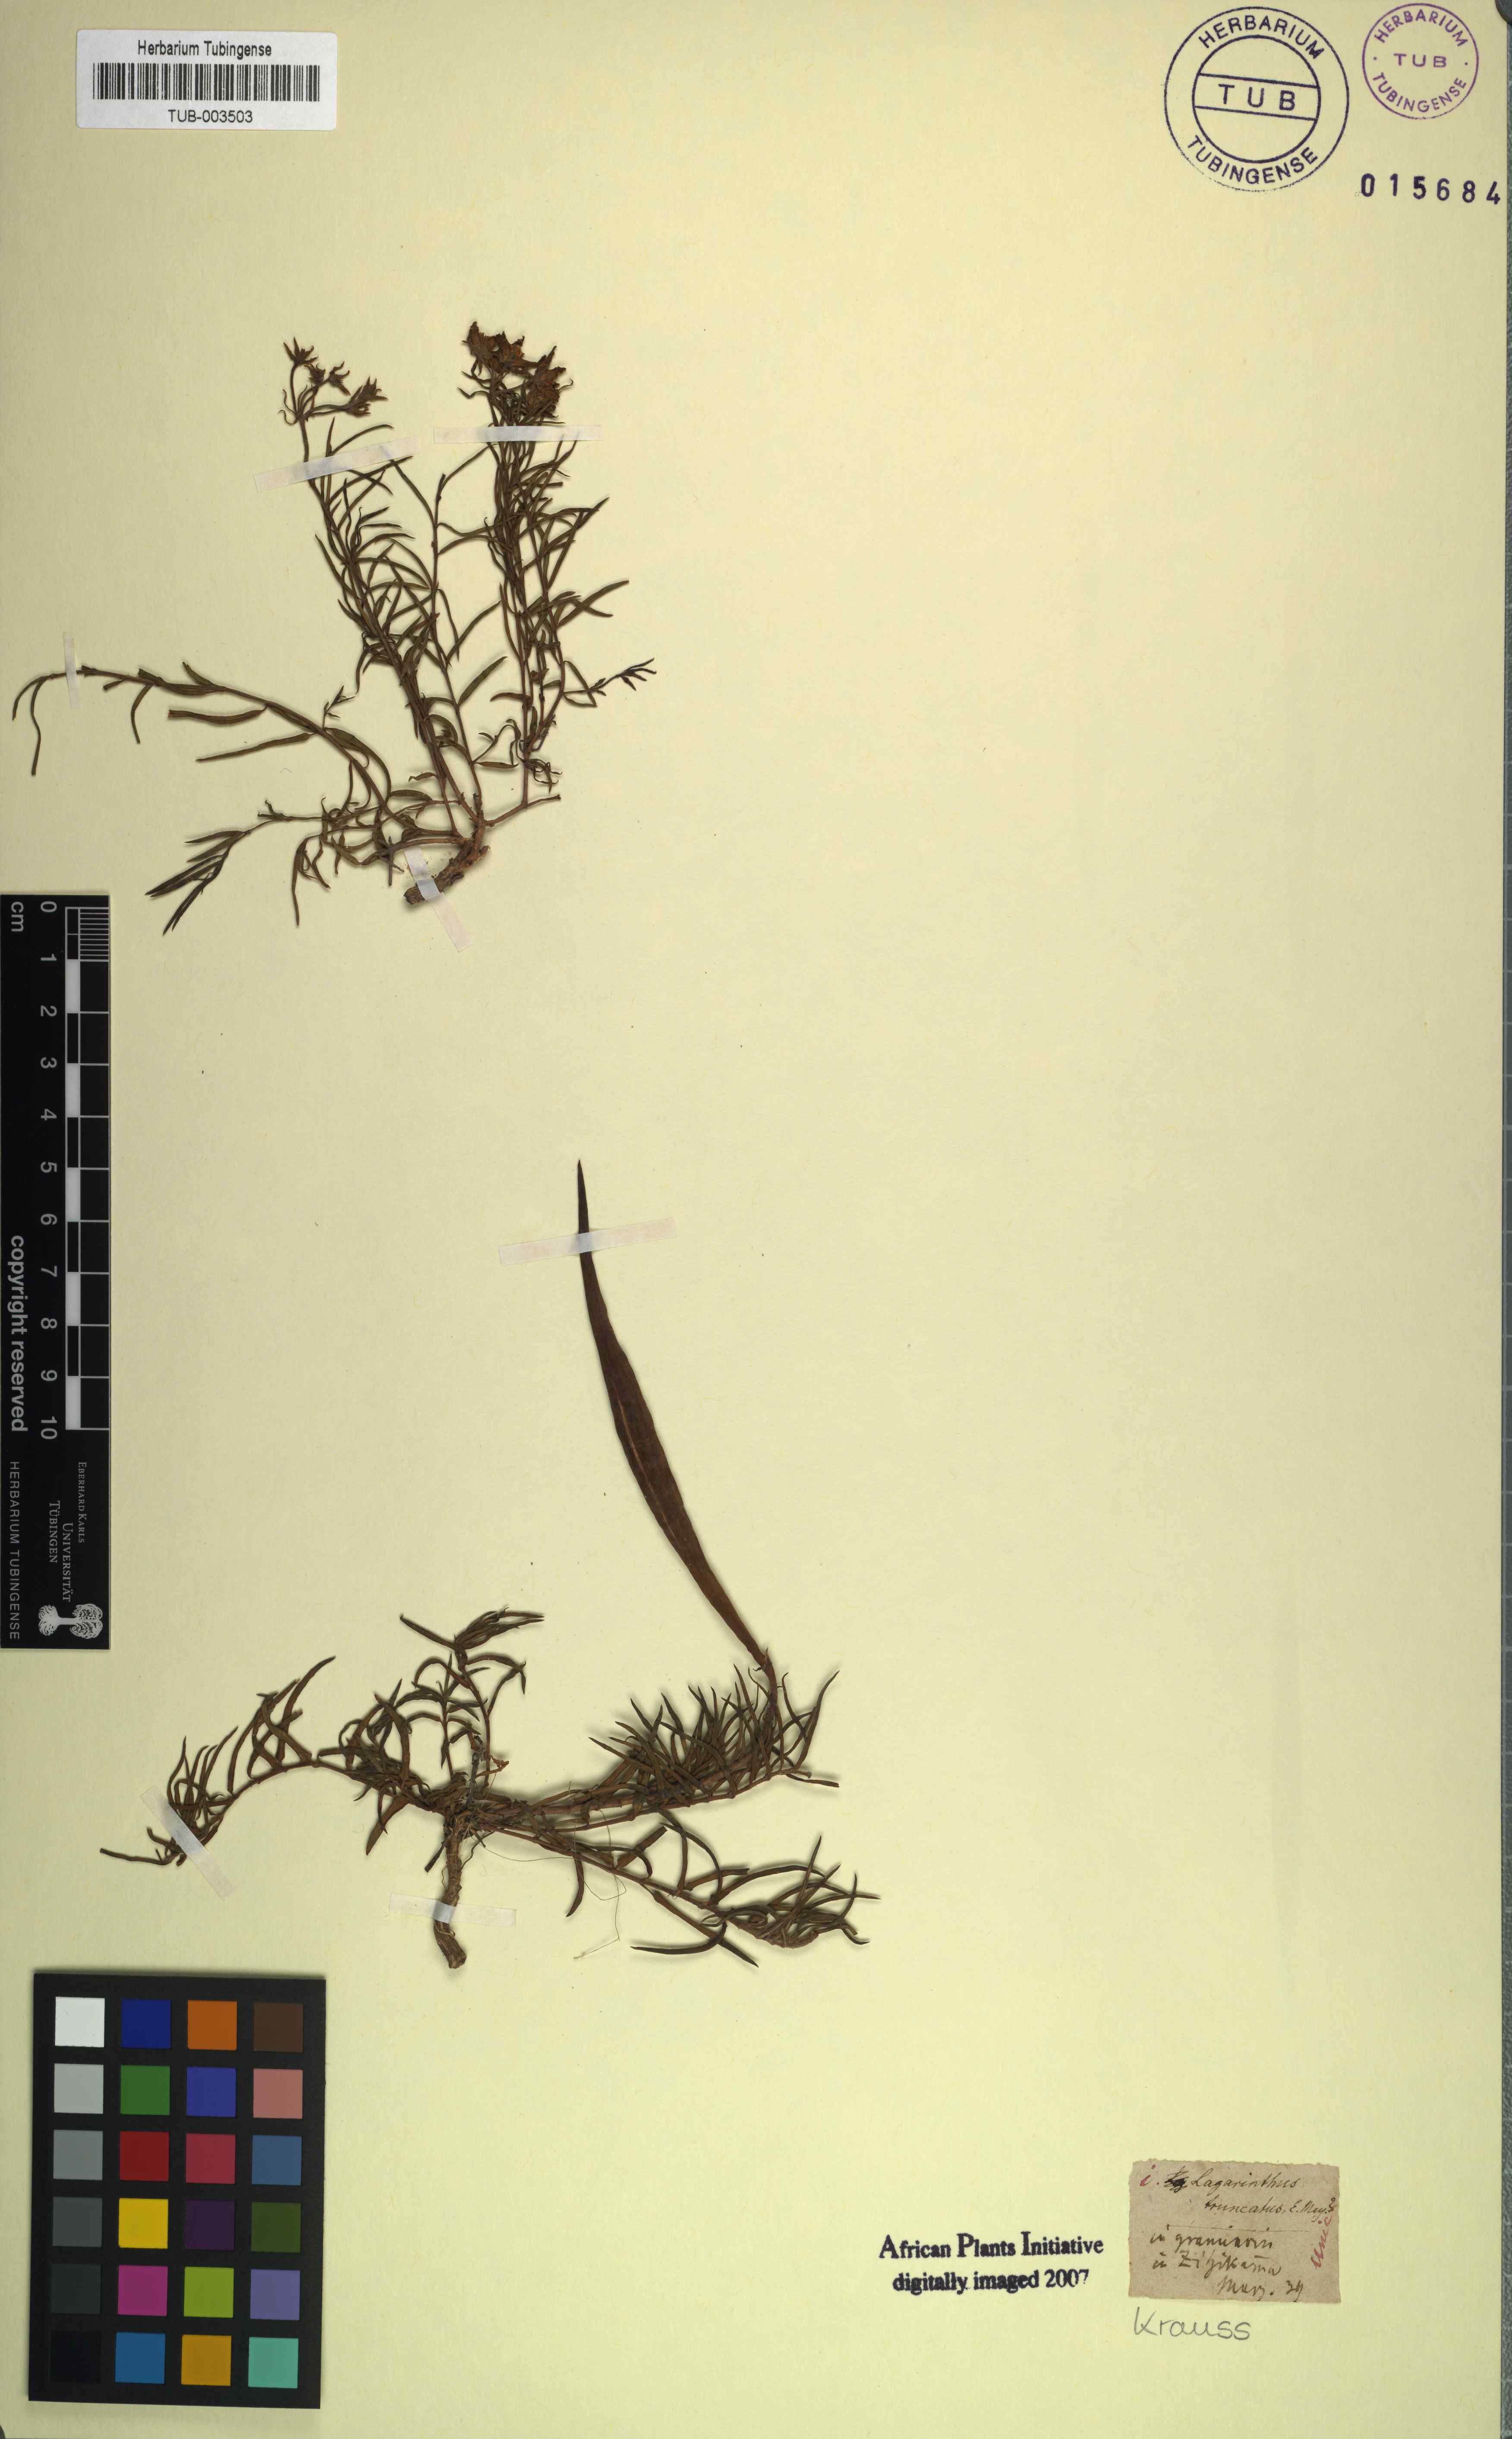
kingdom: Plantae
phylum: Tracheophyta
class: Magnoliopsida
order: Gentianales
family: Apocynaceae
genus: Asclepias
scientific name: Asclepias praemorsa
